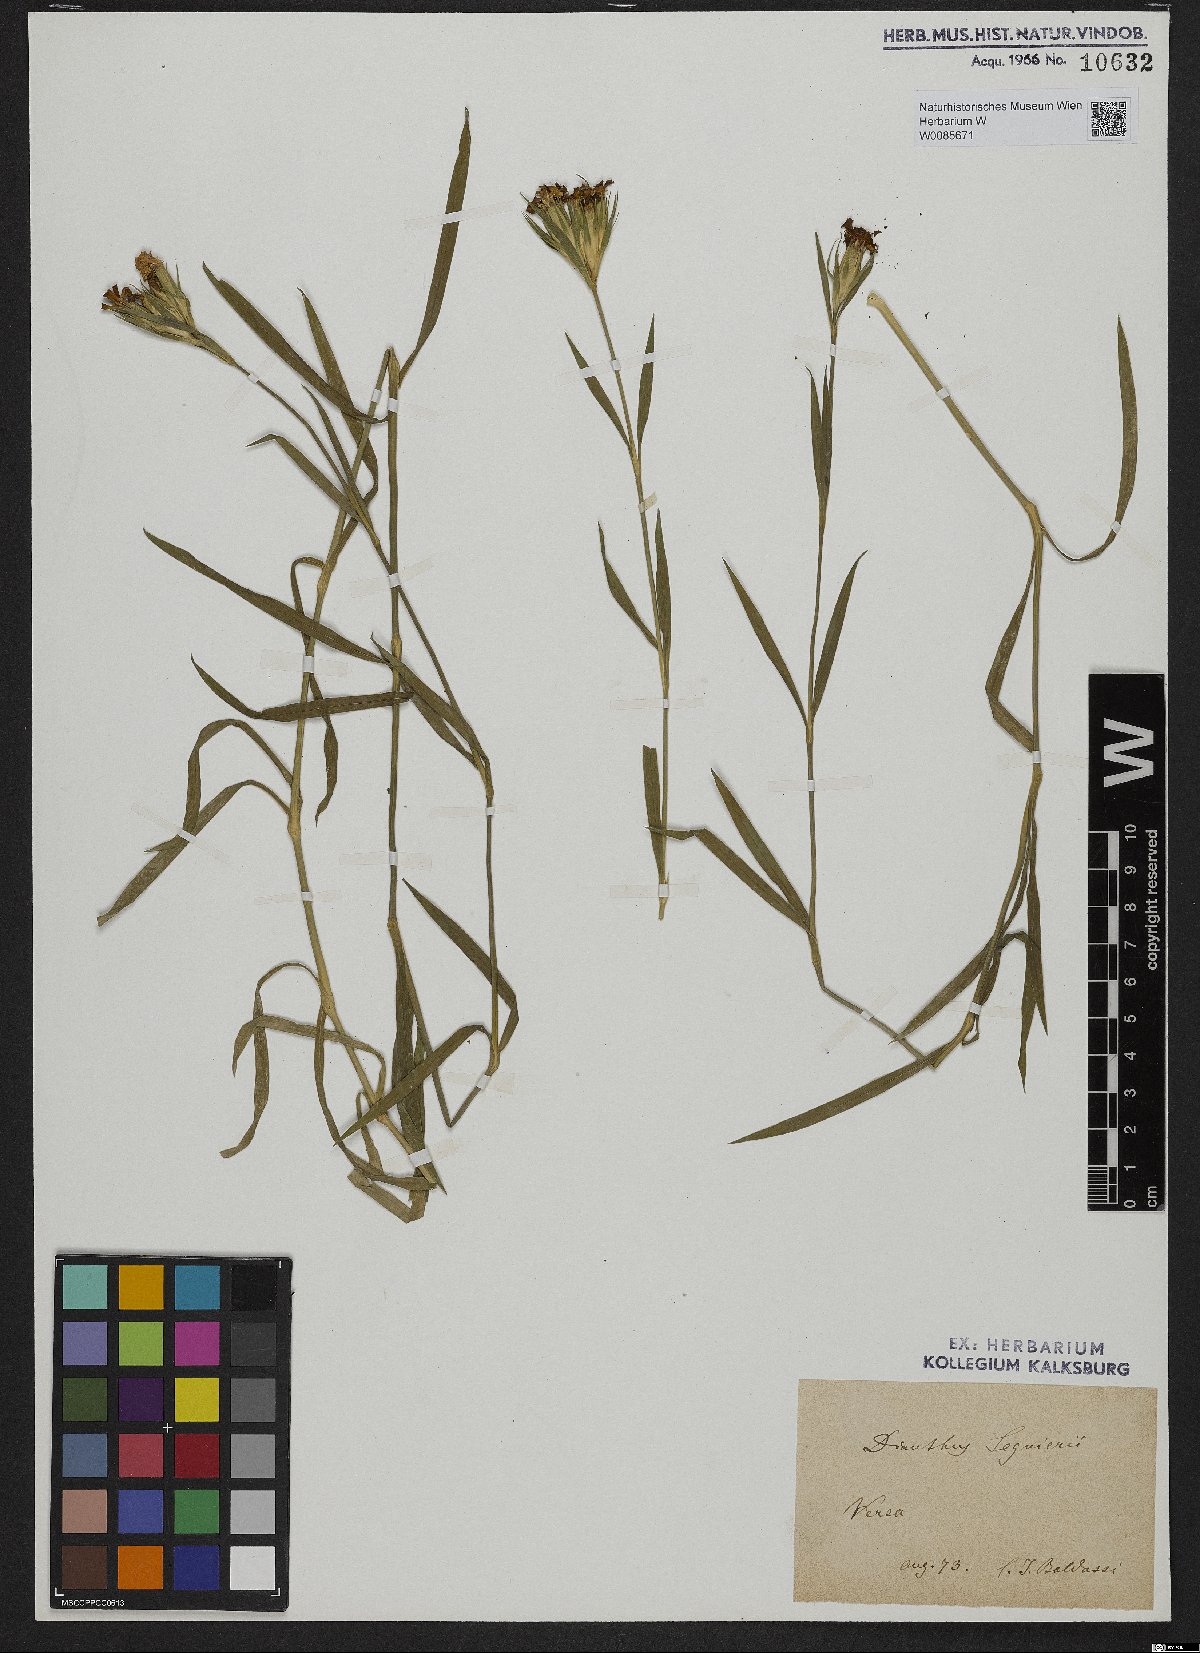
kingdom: Plantae
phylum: Tracheophyta
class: Magnoliopsida
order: Caryophyllales
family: Caryophyllaceae
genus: Dianthus
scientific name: Dianthus seguieri
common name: Ragged pink
